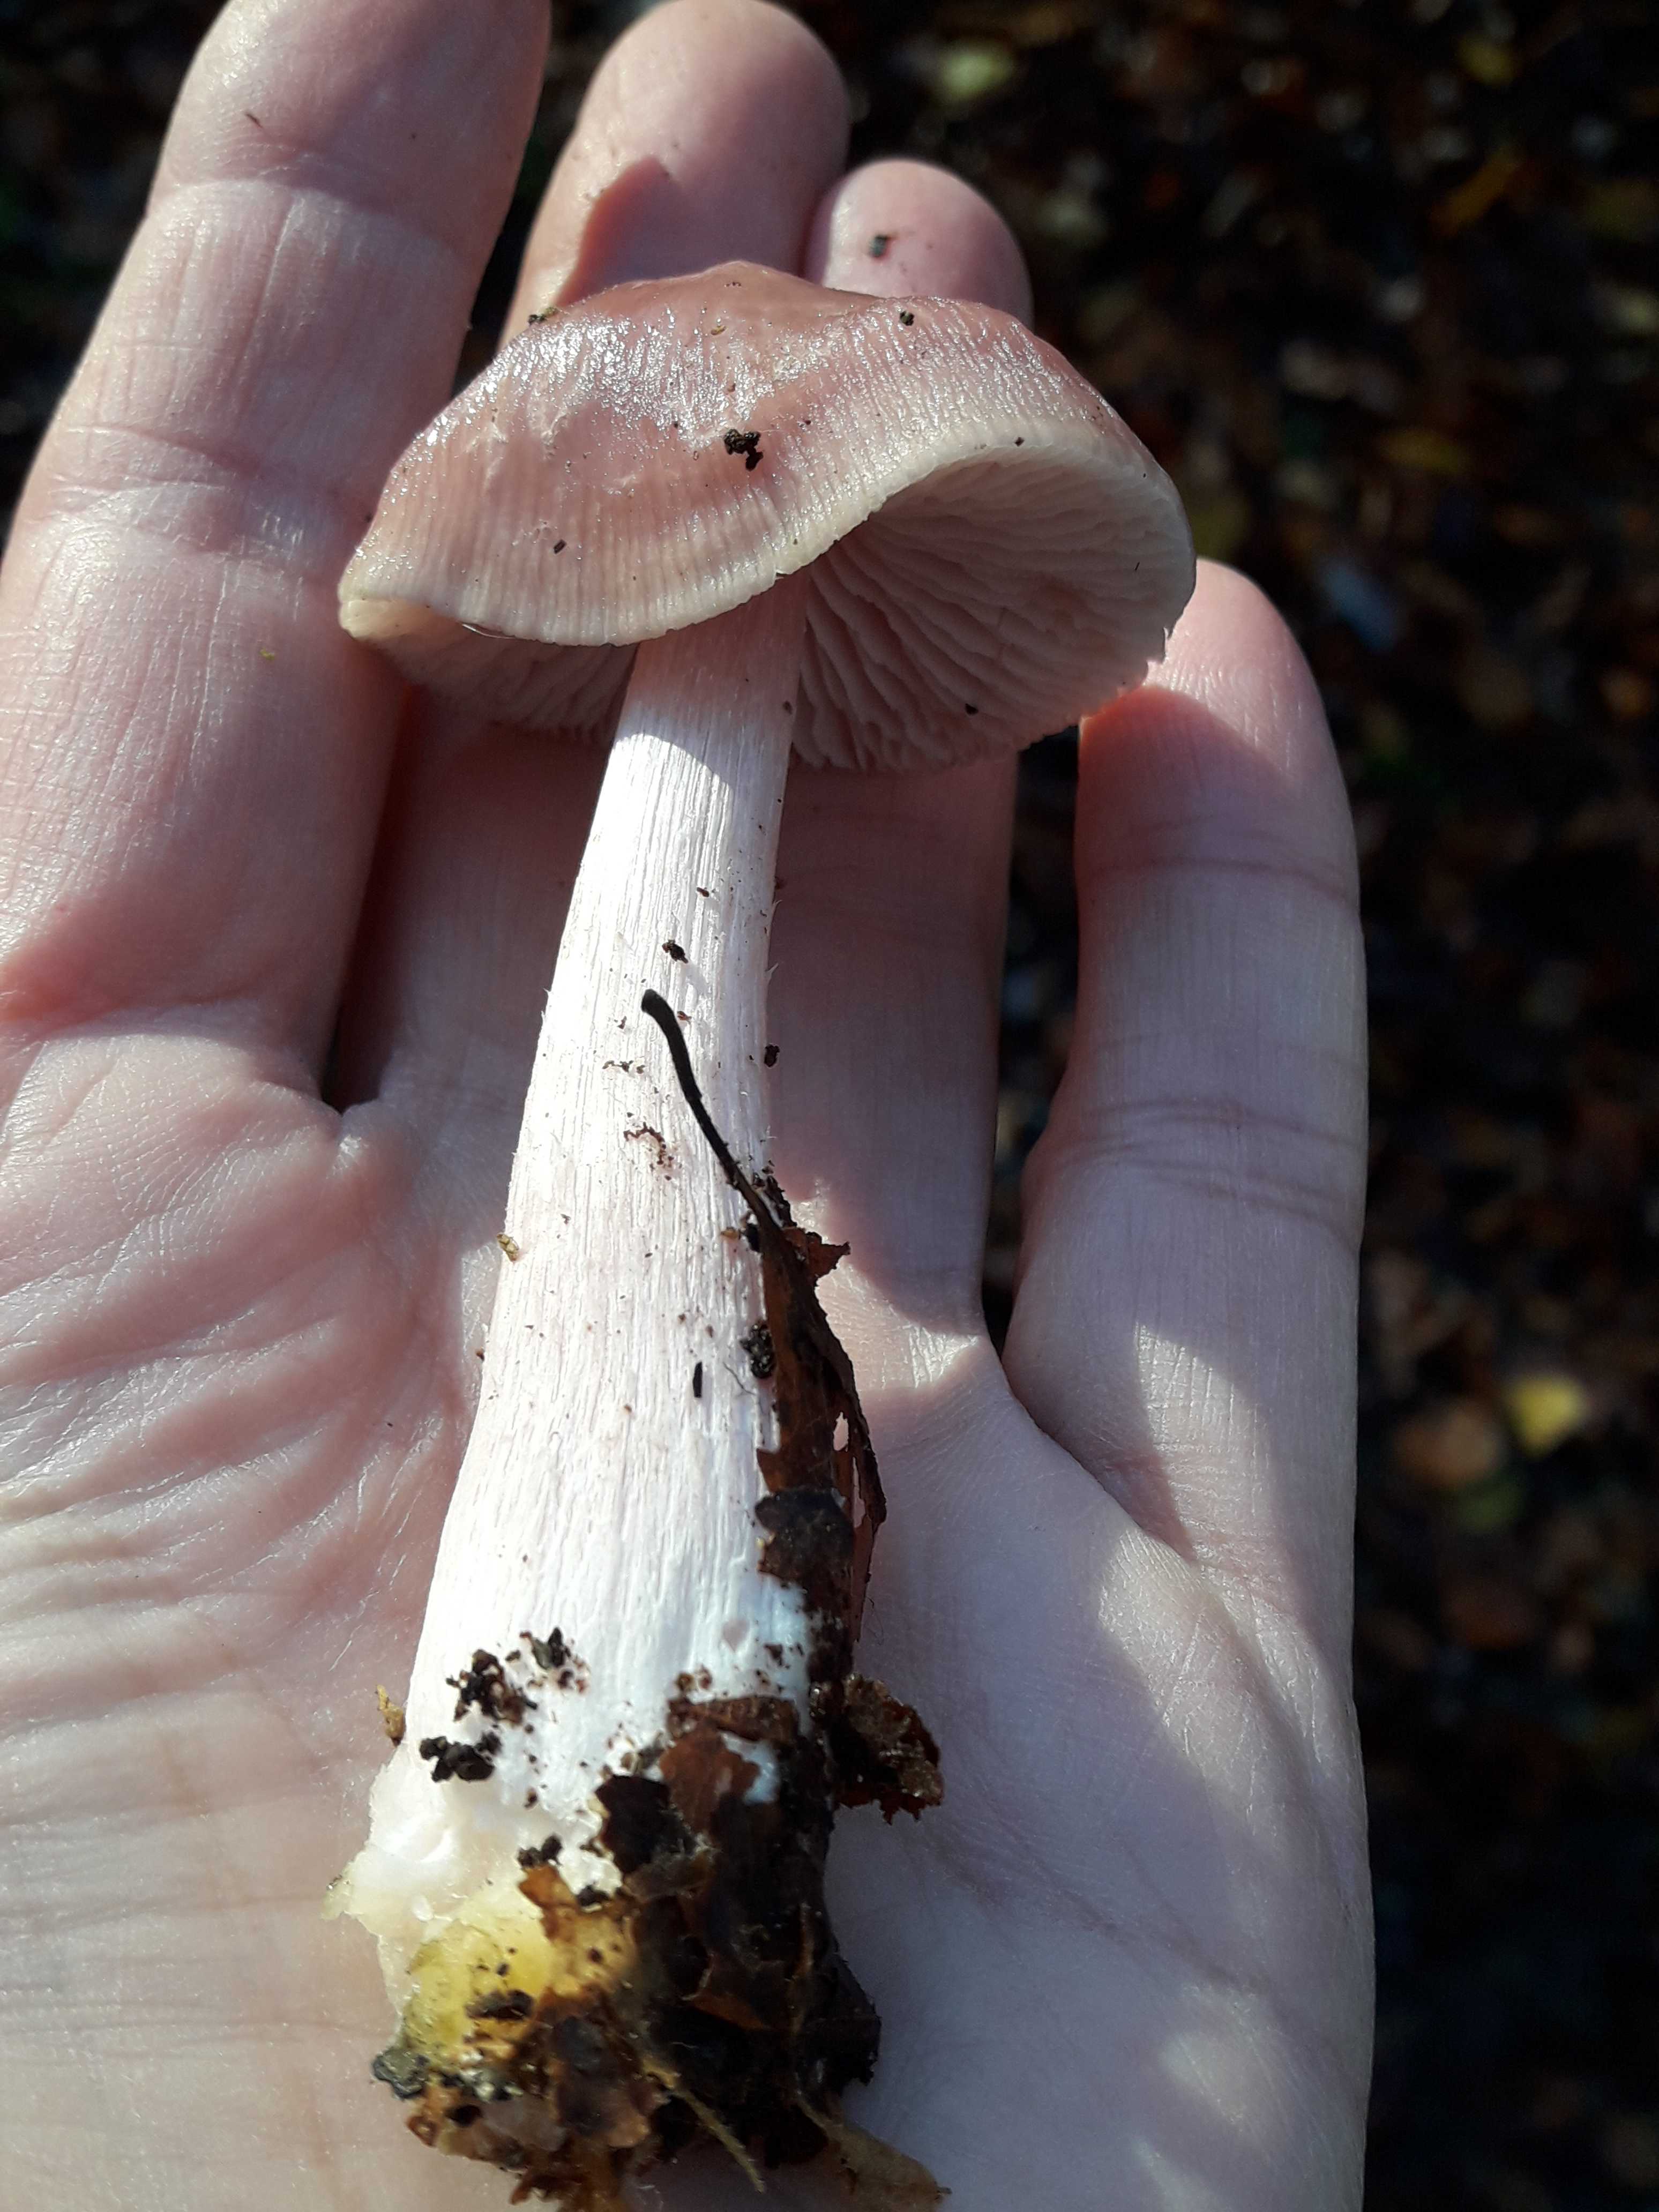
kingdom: Fungi
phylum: Basidiomycota
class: Agaricomycetes
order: Agaricales
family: Mycenaceae
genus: Mycena
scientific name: Mycena rosea
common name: rosa huesvamp
